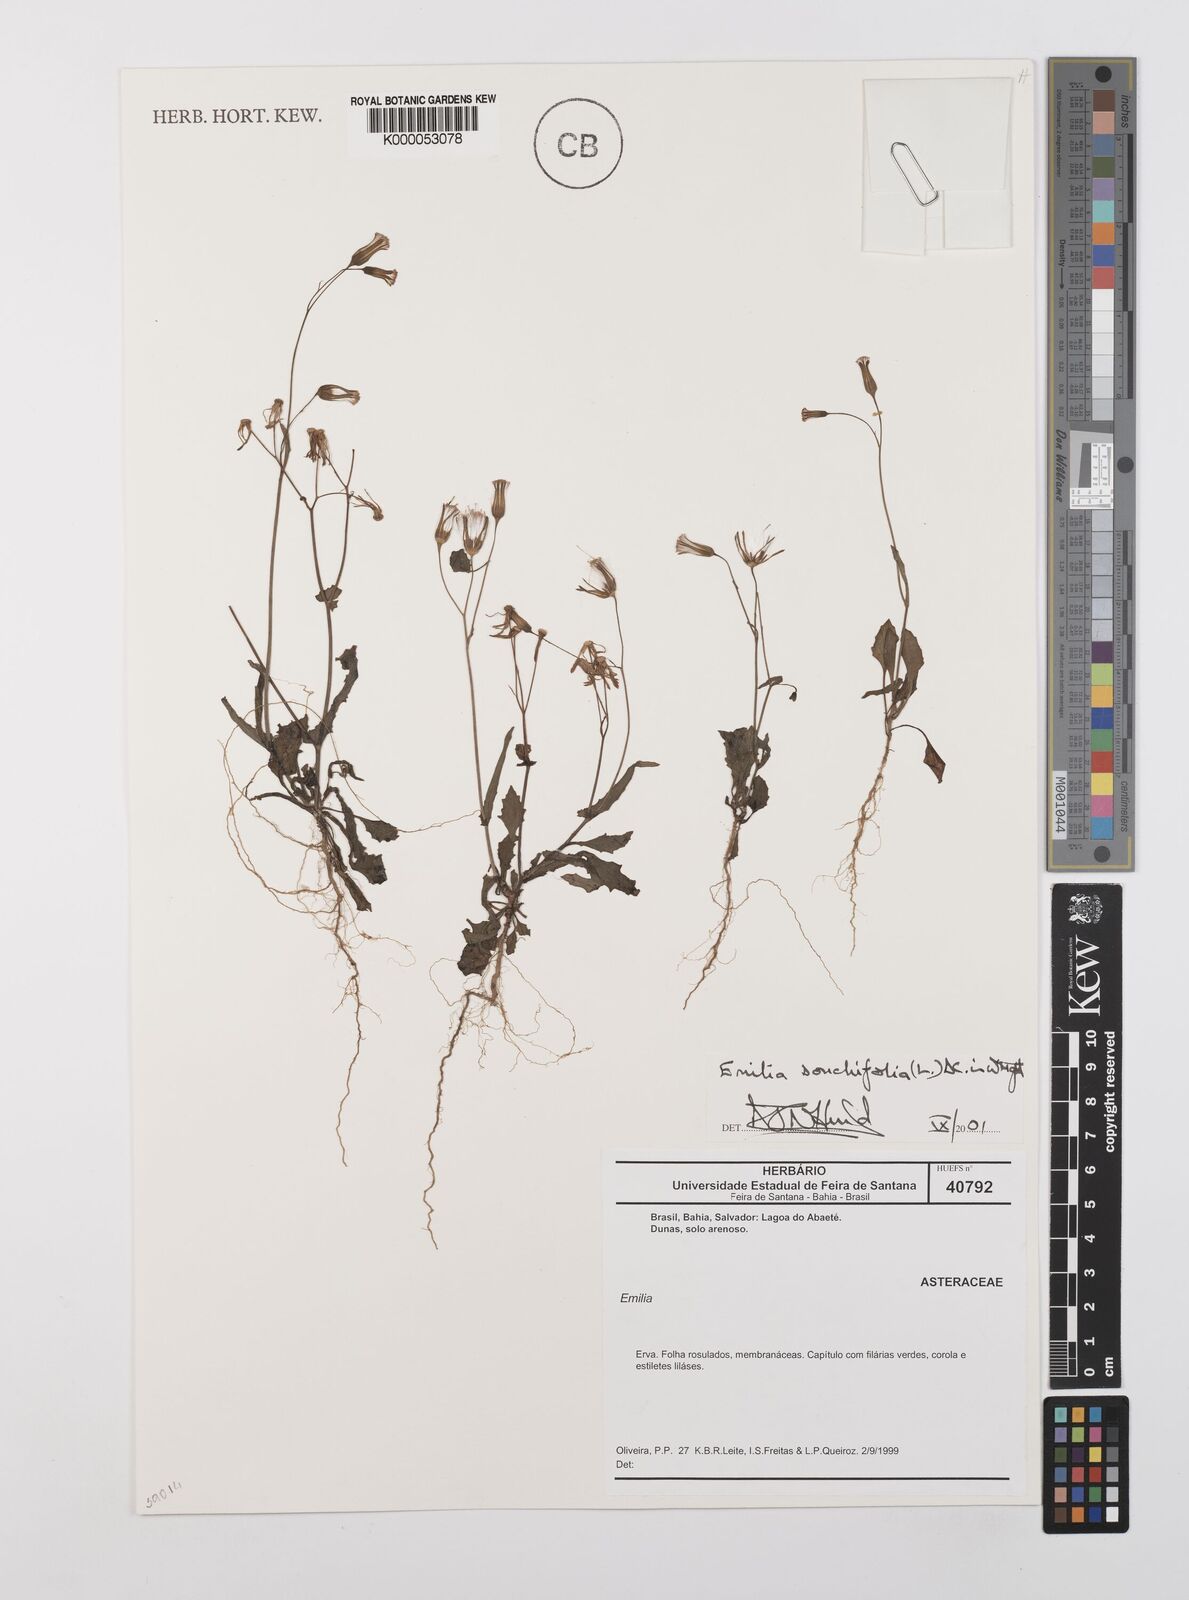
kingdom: Plantae
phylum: Tracheophyta
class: Magnoliopsida
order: Asterales
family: Asteraceae
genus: Emilia
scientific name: Emilia
